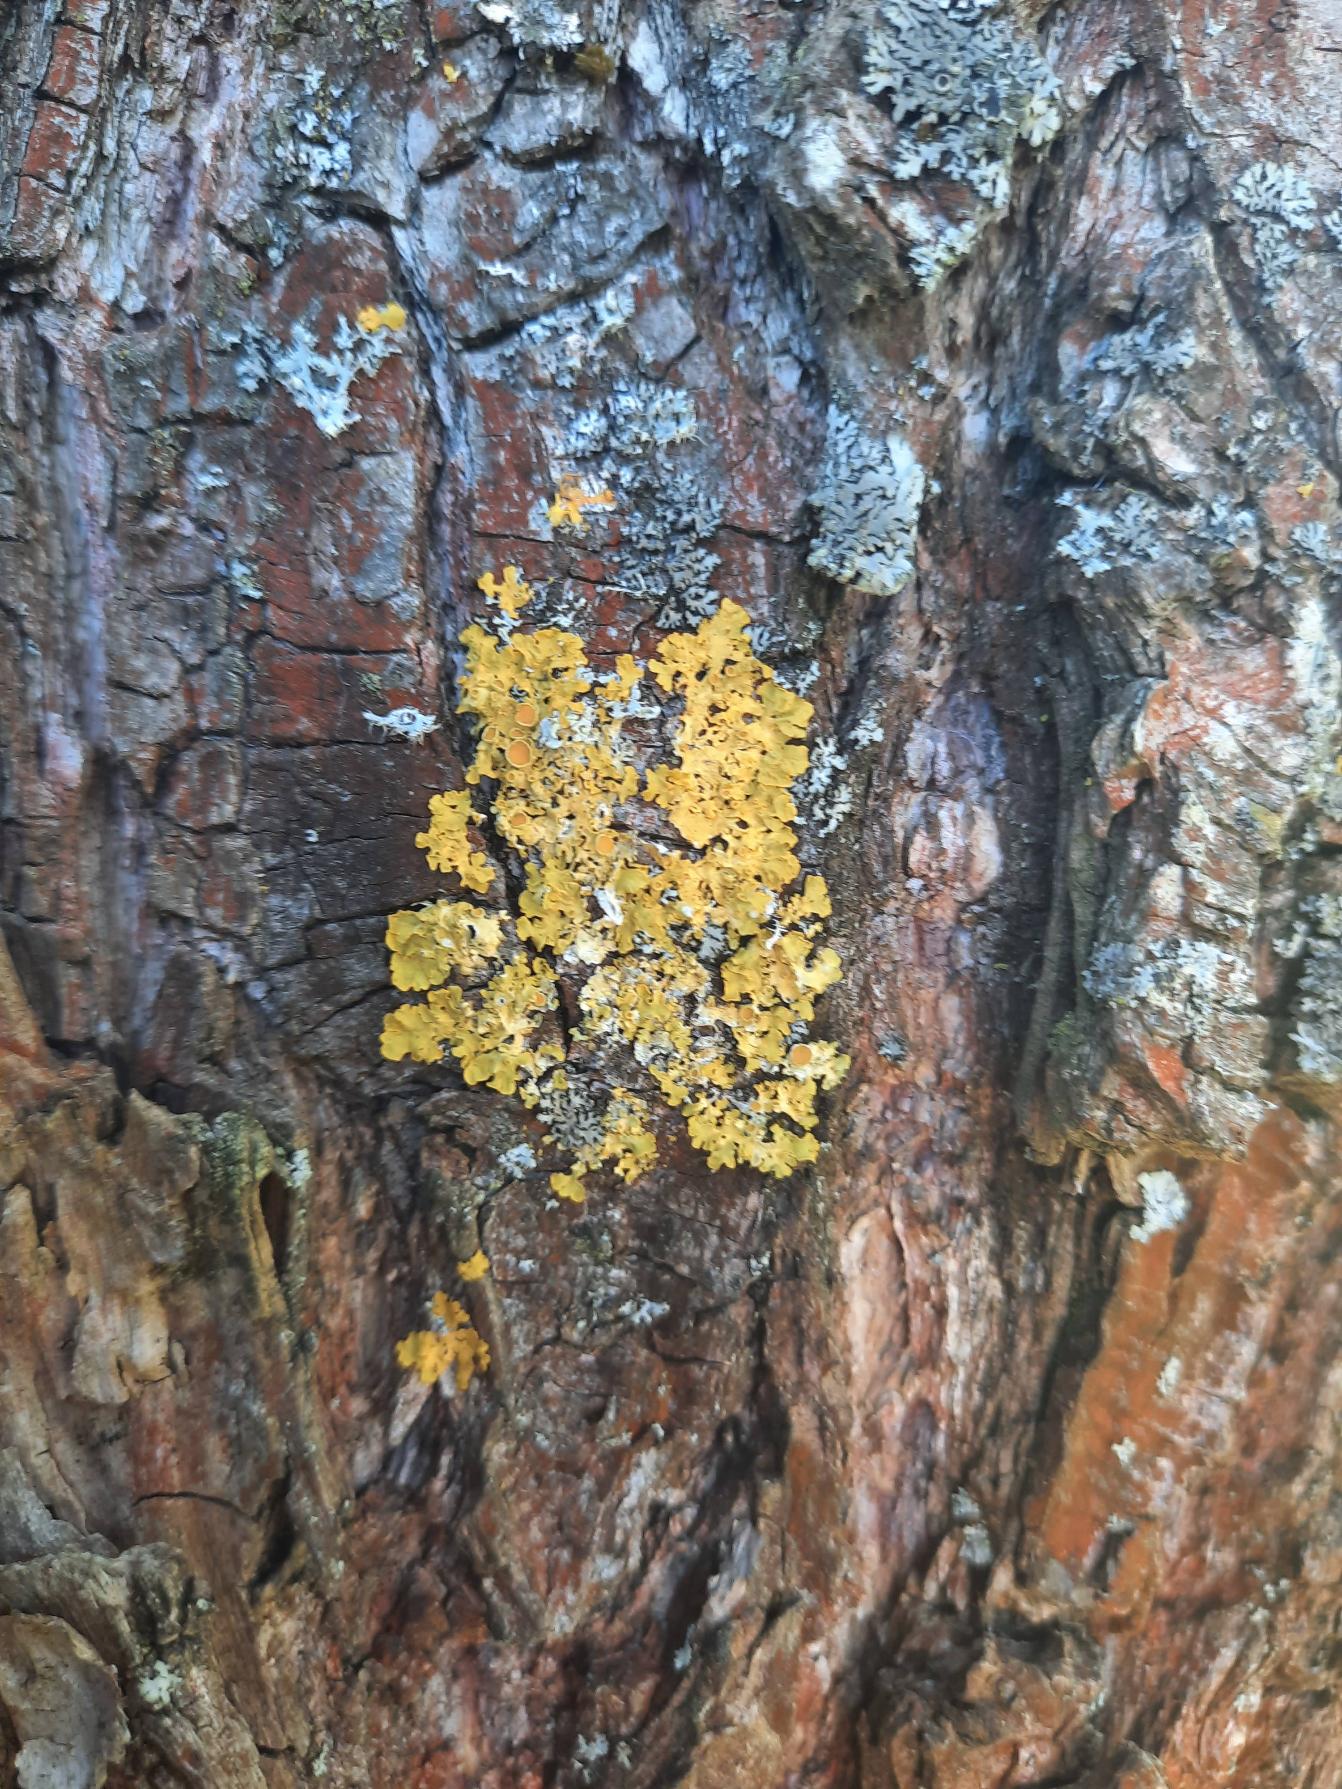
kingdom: Fungi
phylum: Ascomycota
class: Lecanoromycetes
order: Teloschistales
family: Teloschistaceae
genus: Xanthoria
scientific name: Xanthoria parietina
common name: Almindelig væggelav
